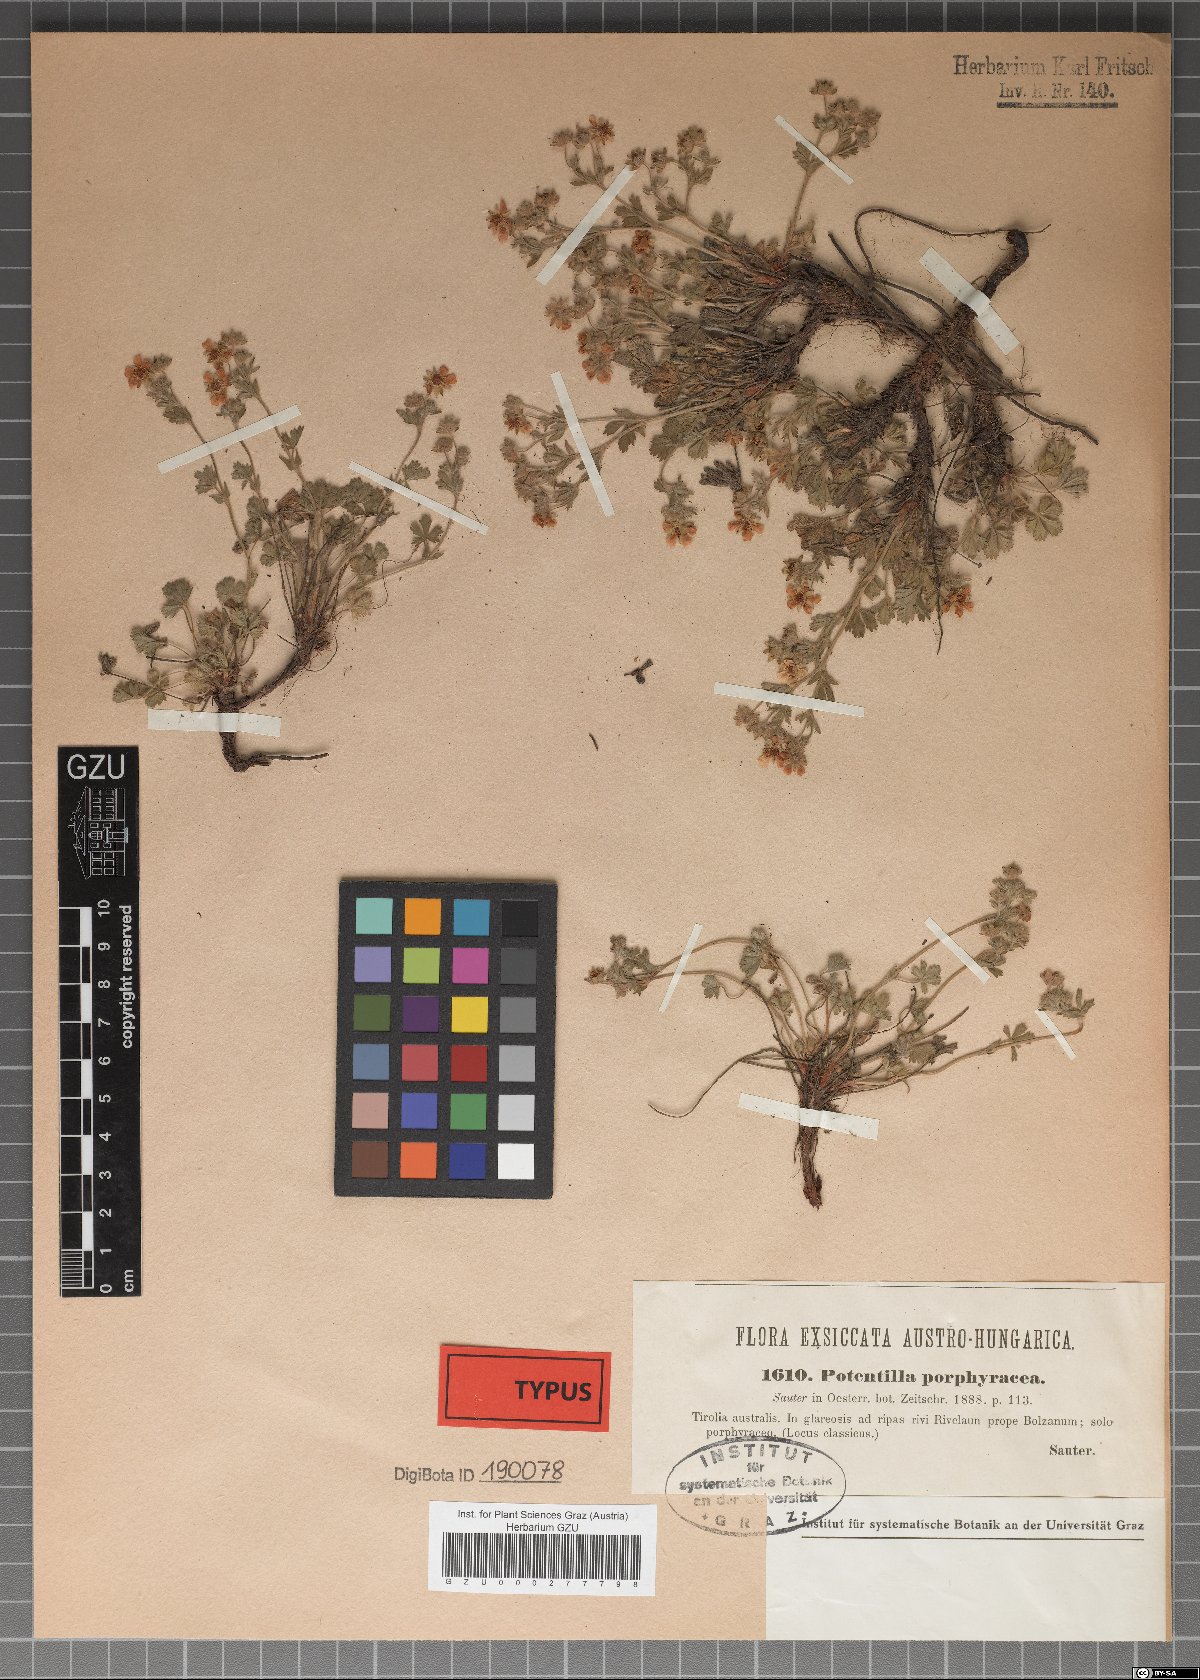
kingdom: Plantae
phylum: Tracheophyta
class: Magnoliopsida
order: Rosales
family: Rosaceae
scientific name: Rosaceae
